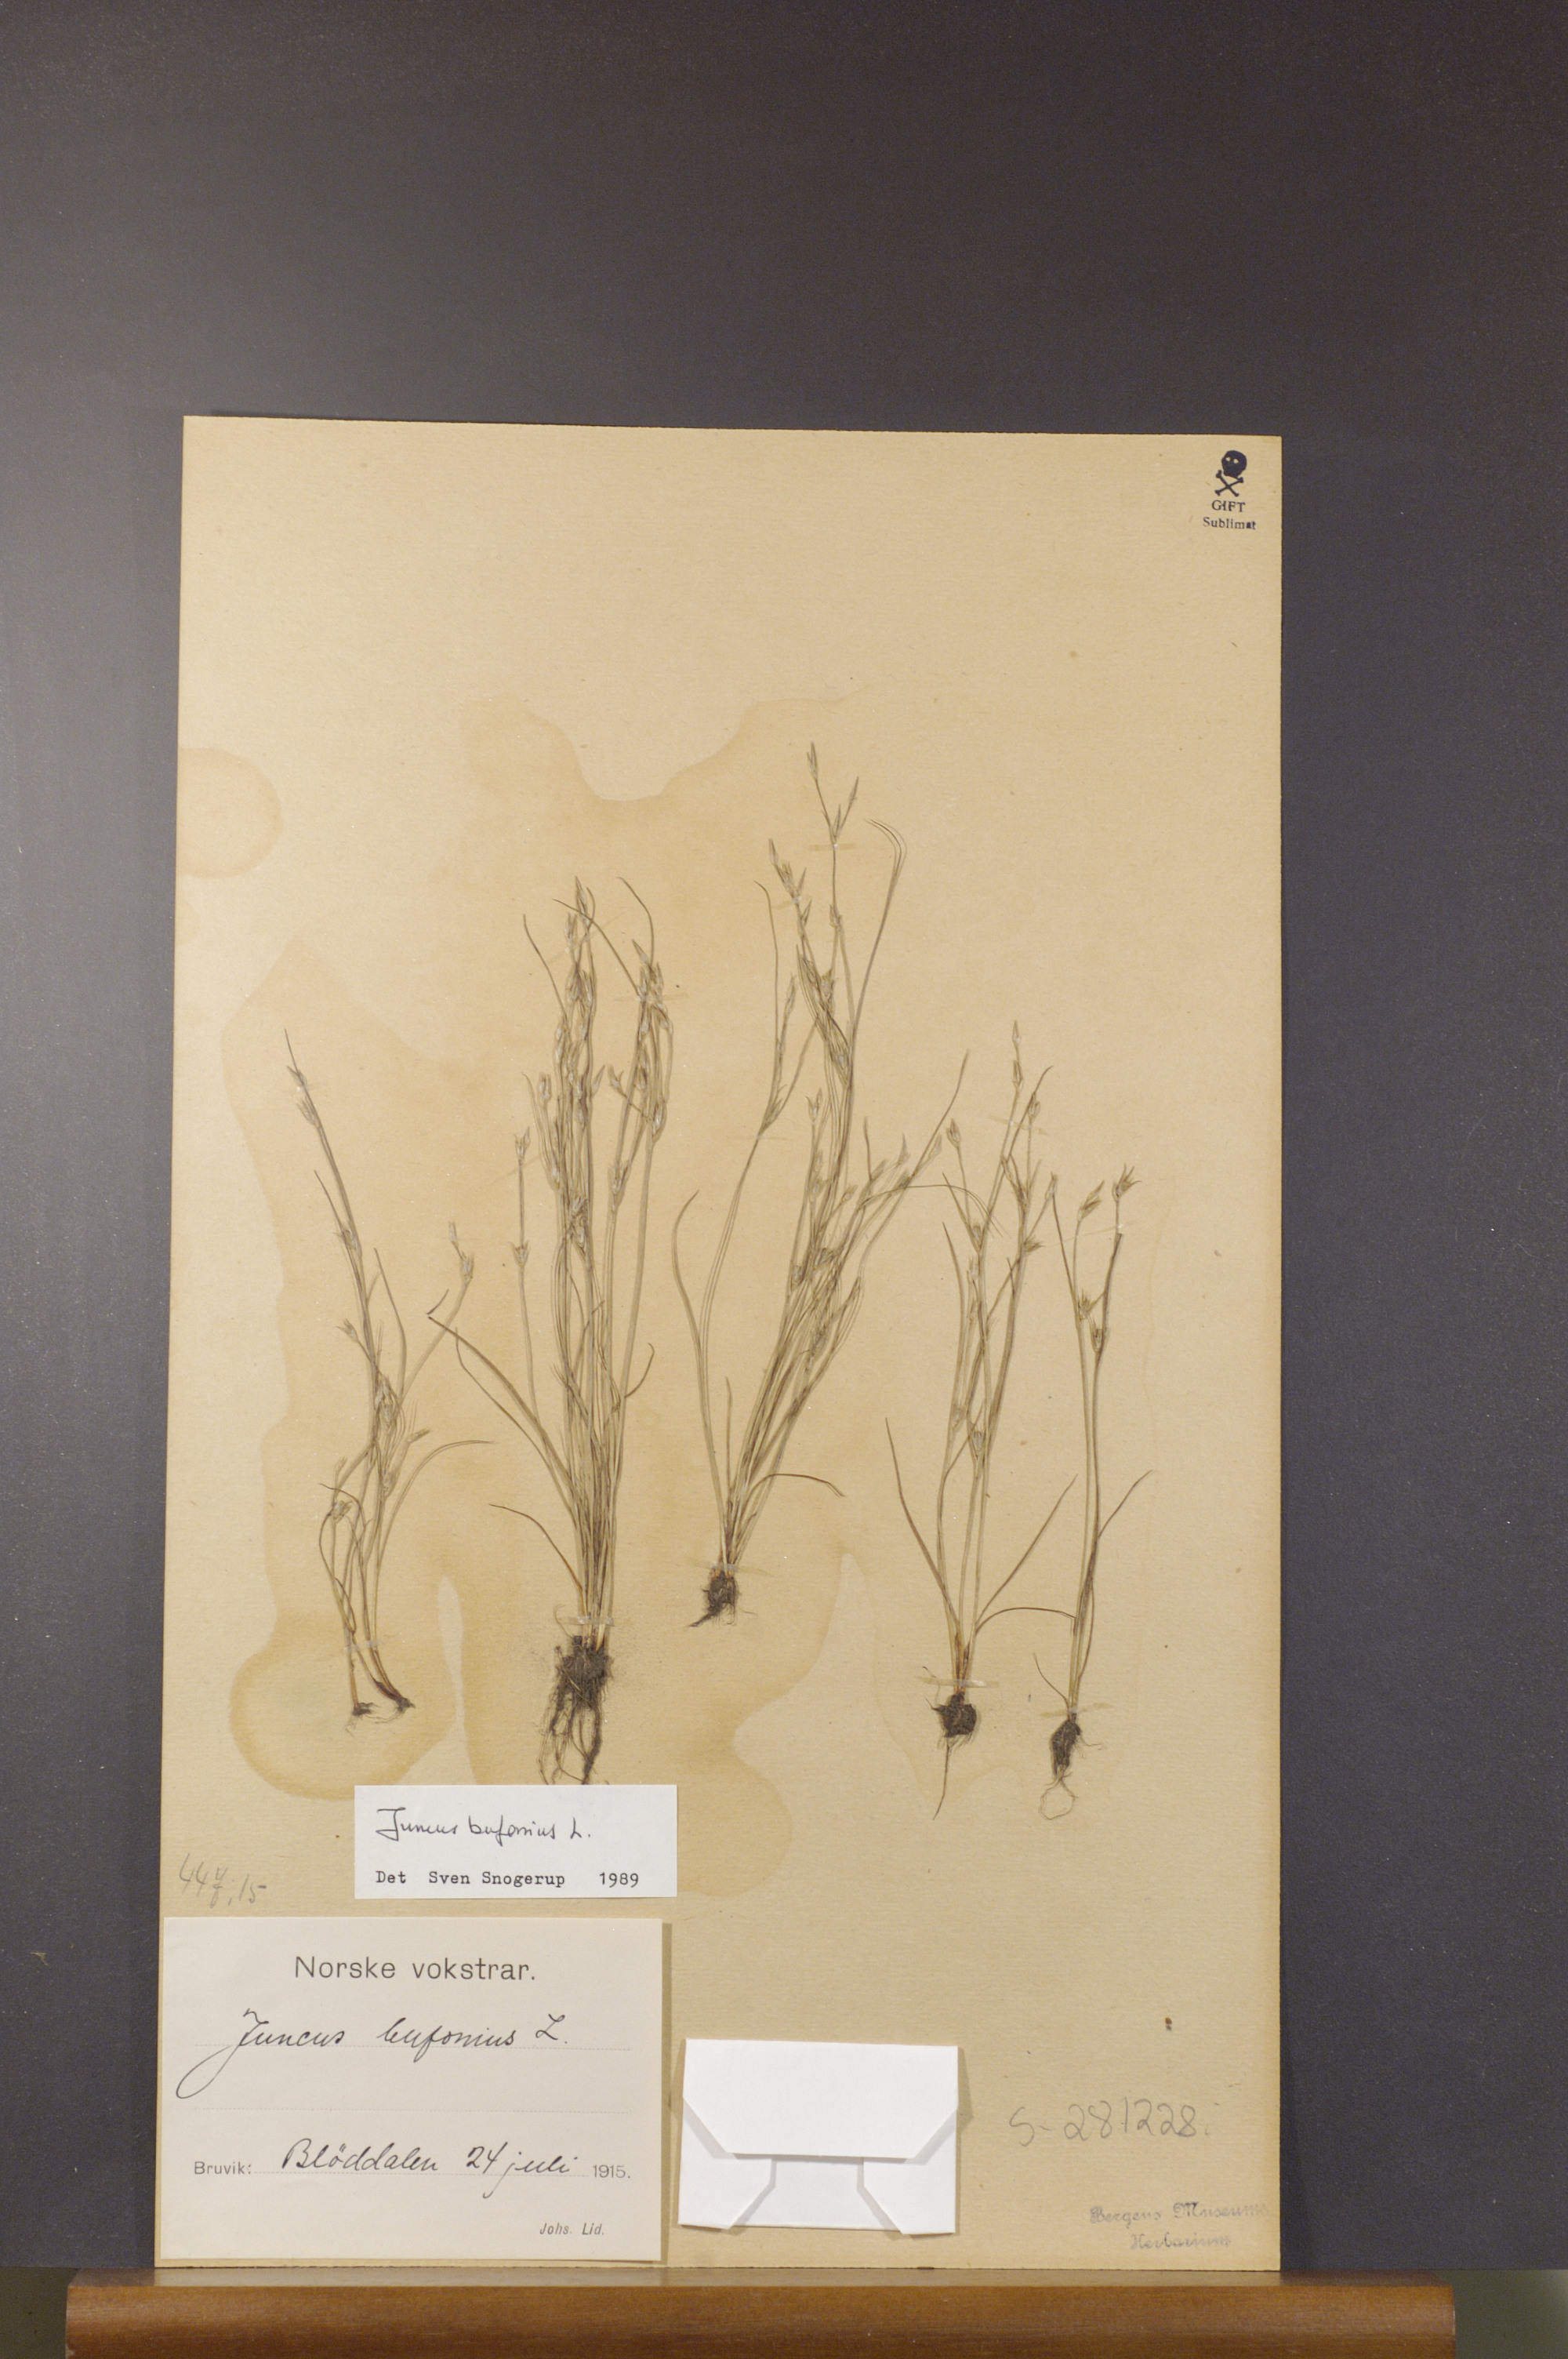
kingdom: Plantae
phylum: Tracheophyta
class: Liliopsida
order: Poales
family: Juncaceae
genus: Juncus
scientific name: Juncus bufonius
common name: Toad rush
